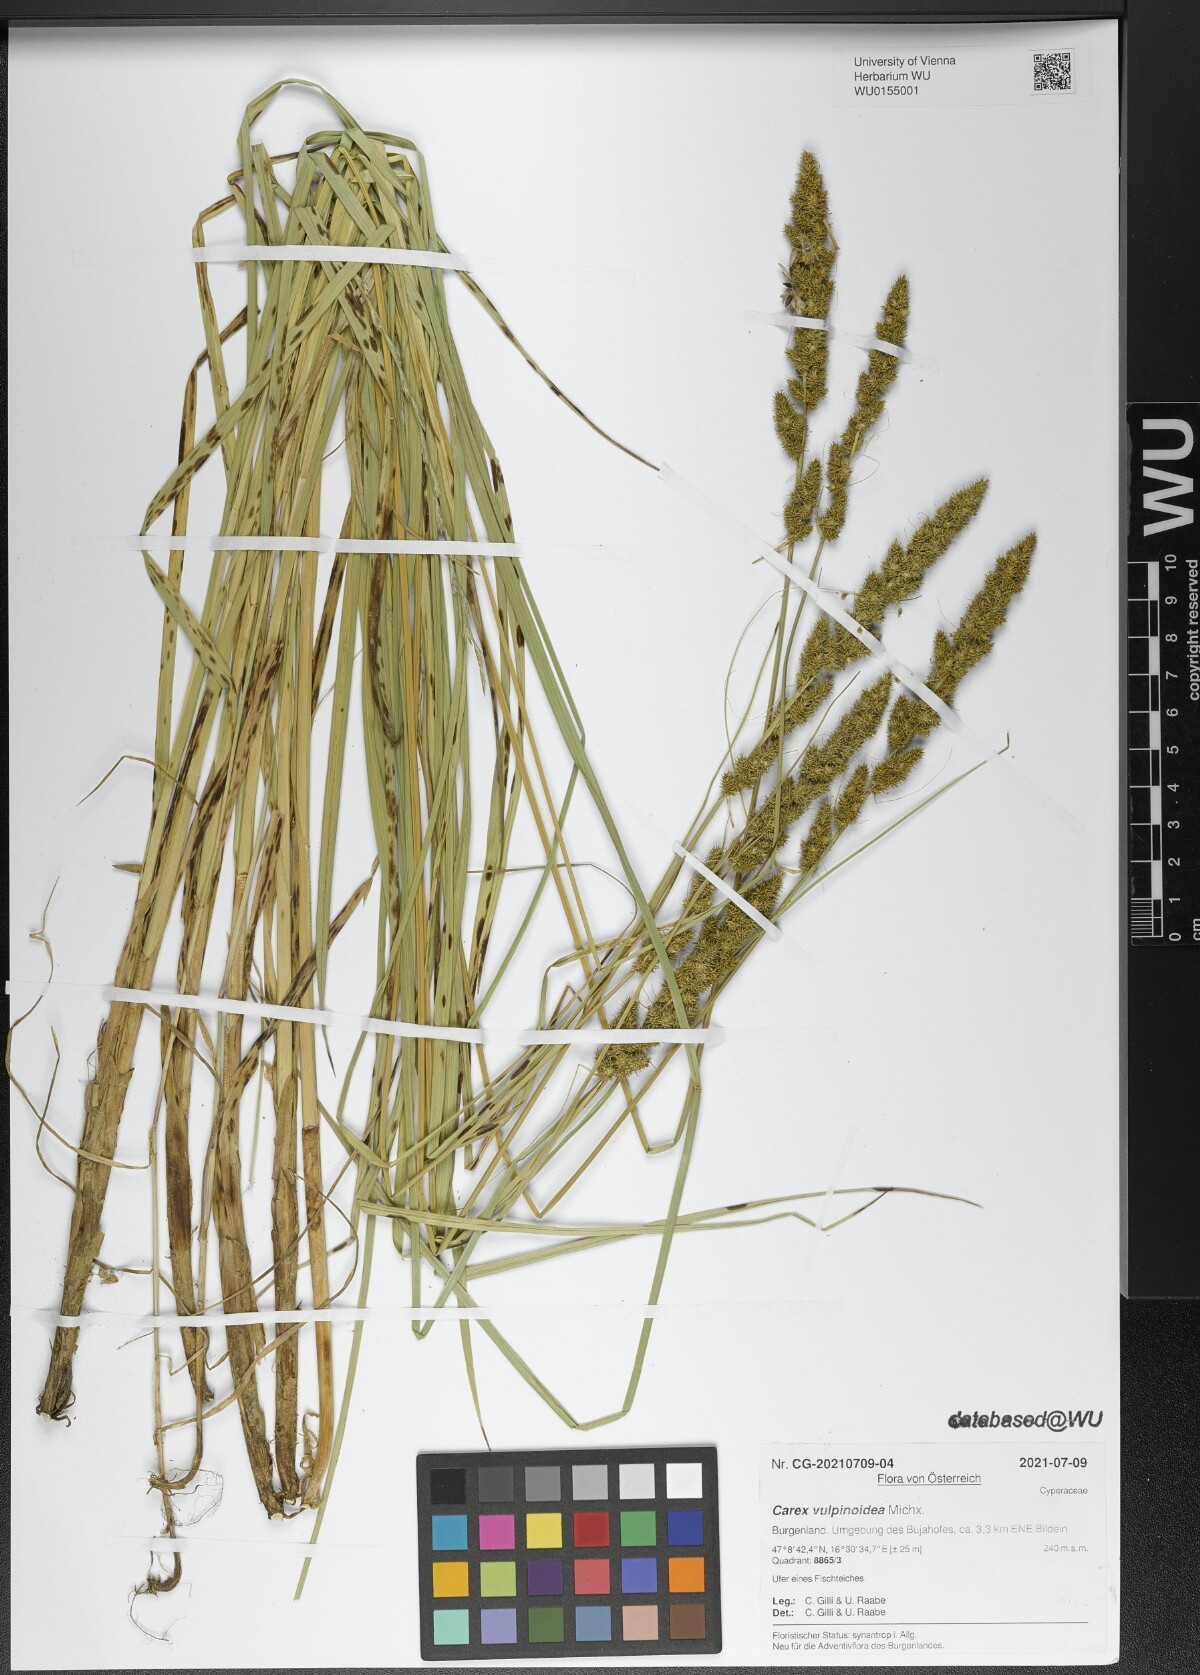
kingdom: Plantae
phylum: Tracheophyta
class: Liliopsida
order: Poales
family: Cyperaceae
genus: Carex
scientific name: Carex vulpinoidea
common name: American fox-sedge
